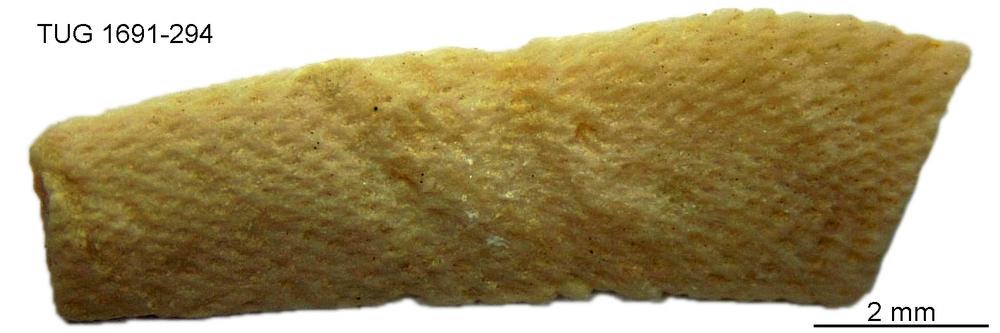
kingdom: Animalia
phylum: Bryozoa
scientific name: Bryozoa
